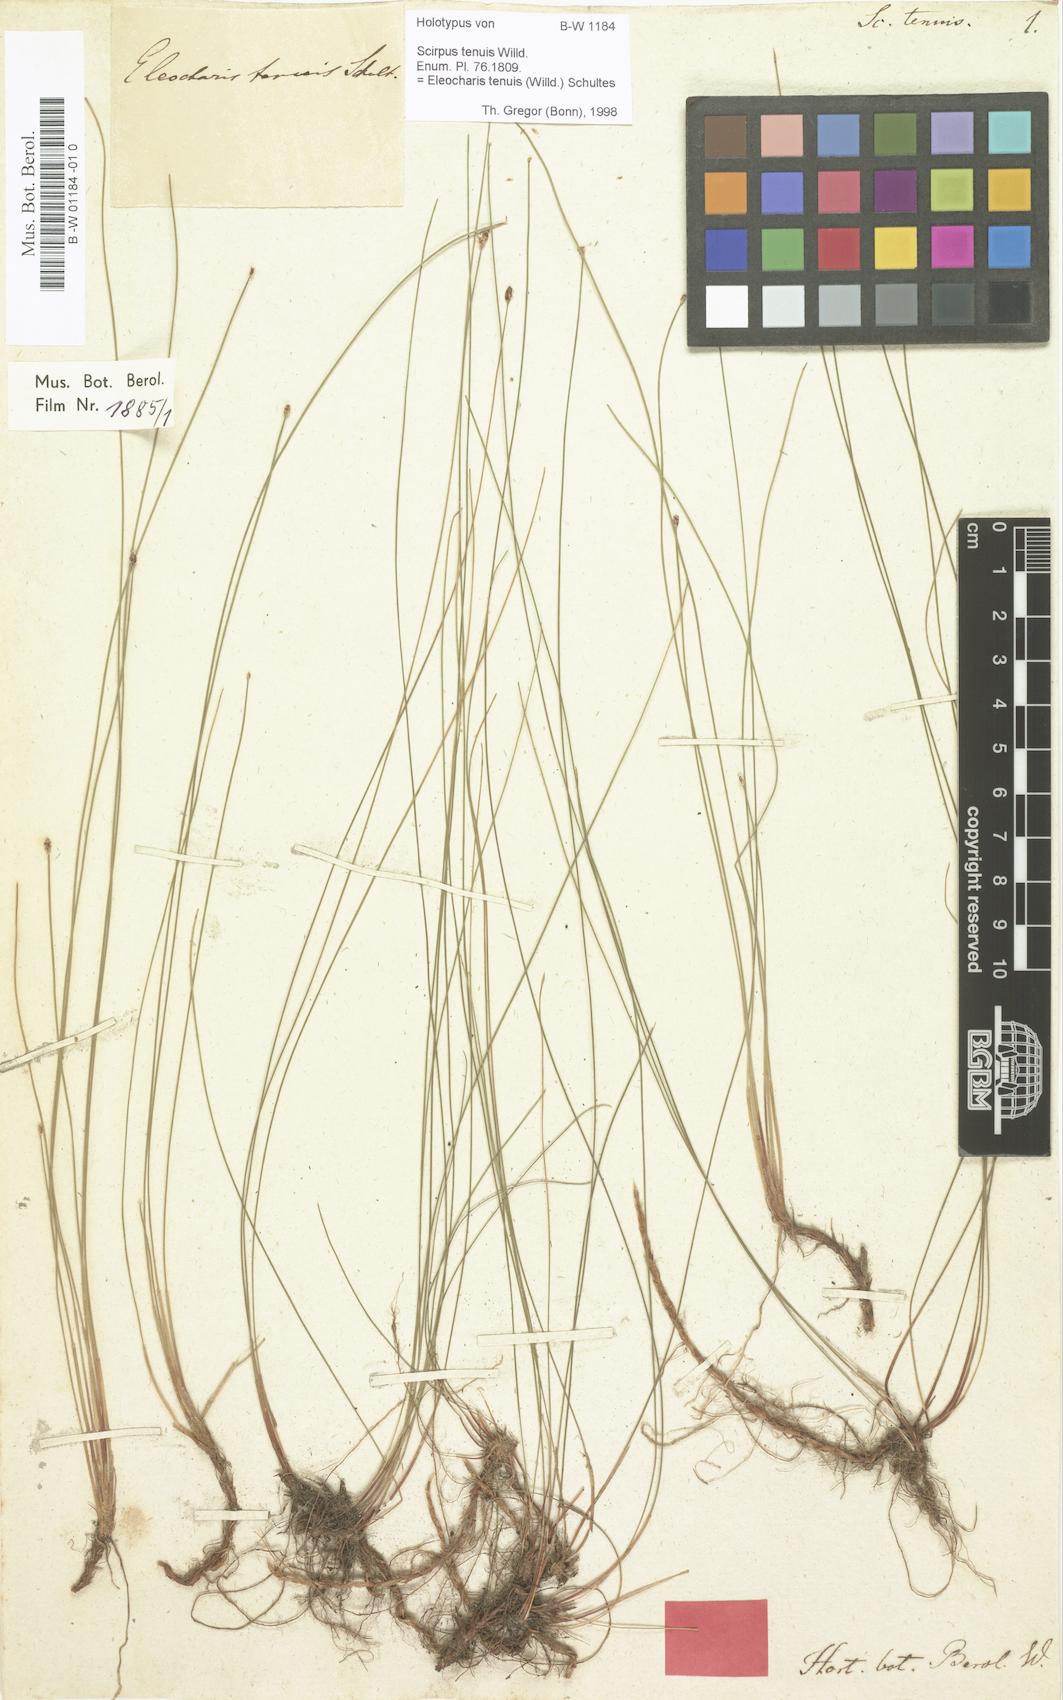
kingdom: Plantae
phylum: Tracheophyta
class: Liliopsida
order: Poales
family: Cyperaceae
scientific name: Cyperaceae
